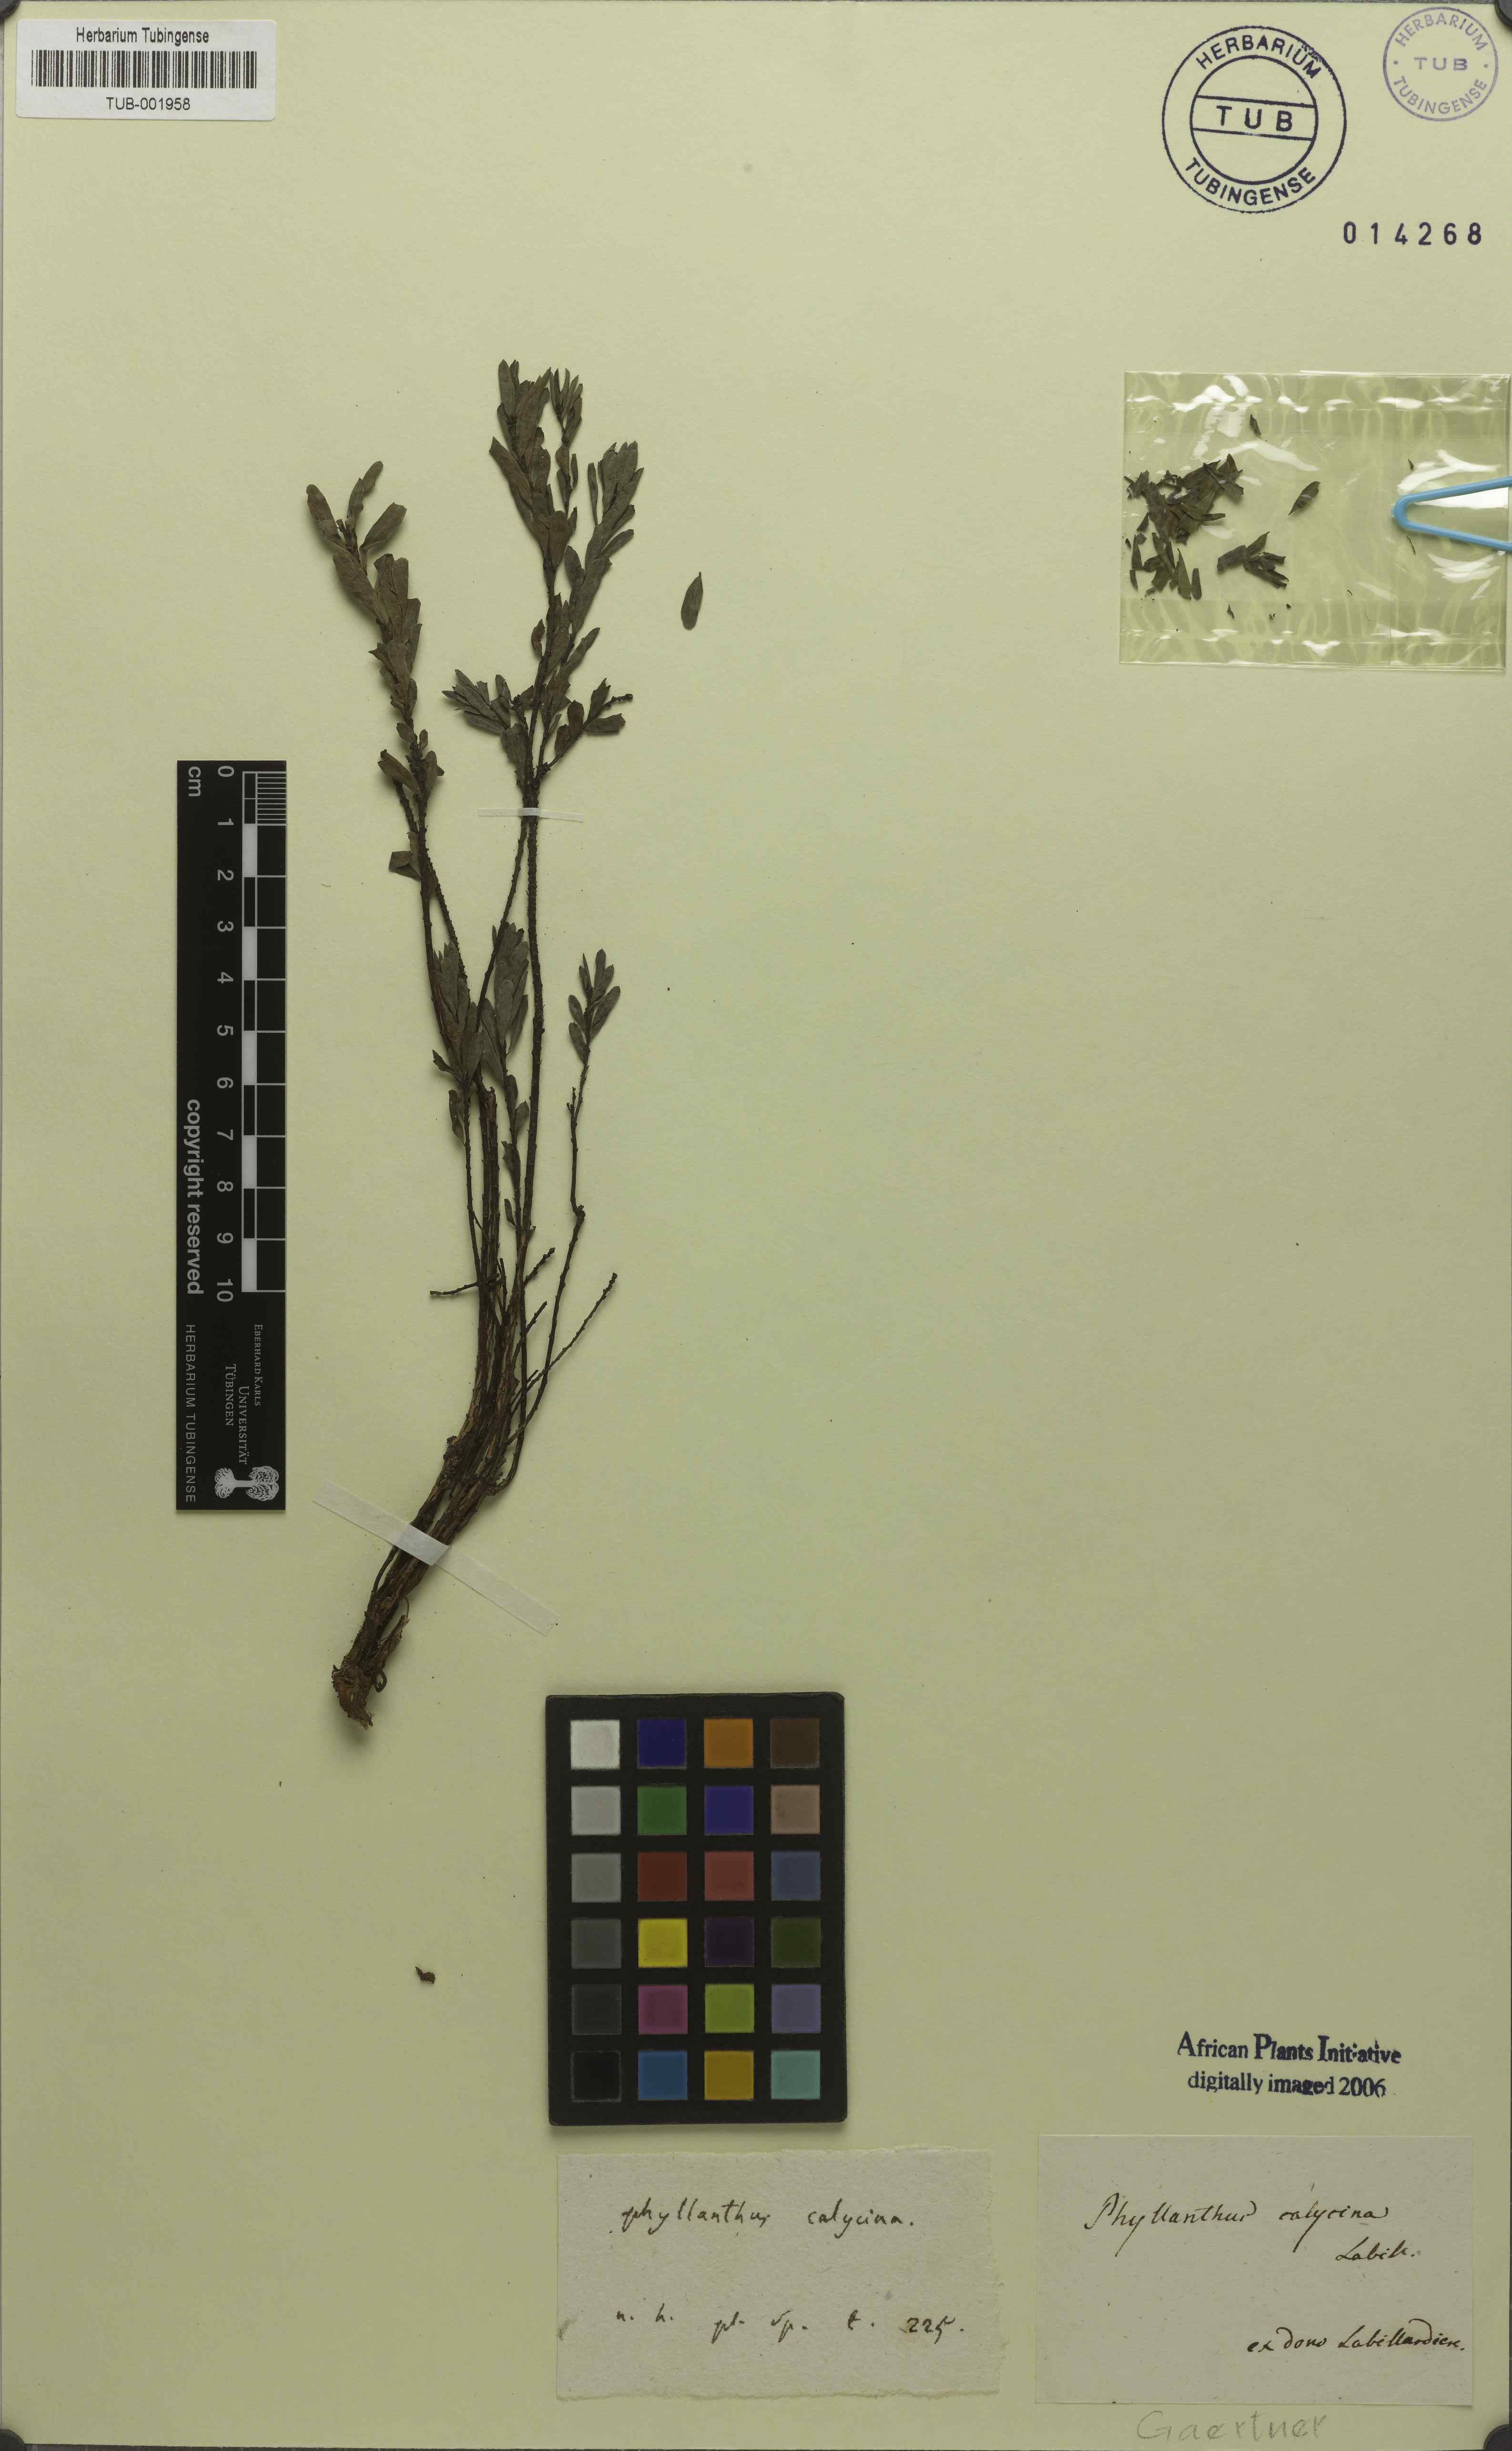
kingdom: Plantae
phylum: Tracheophyta
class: Magnoliopsida
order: Malpighiales
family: Phyllanthaceae
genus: Phyllanthus
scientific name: Phyllanthus calycinus
